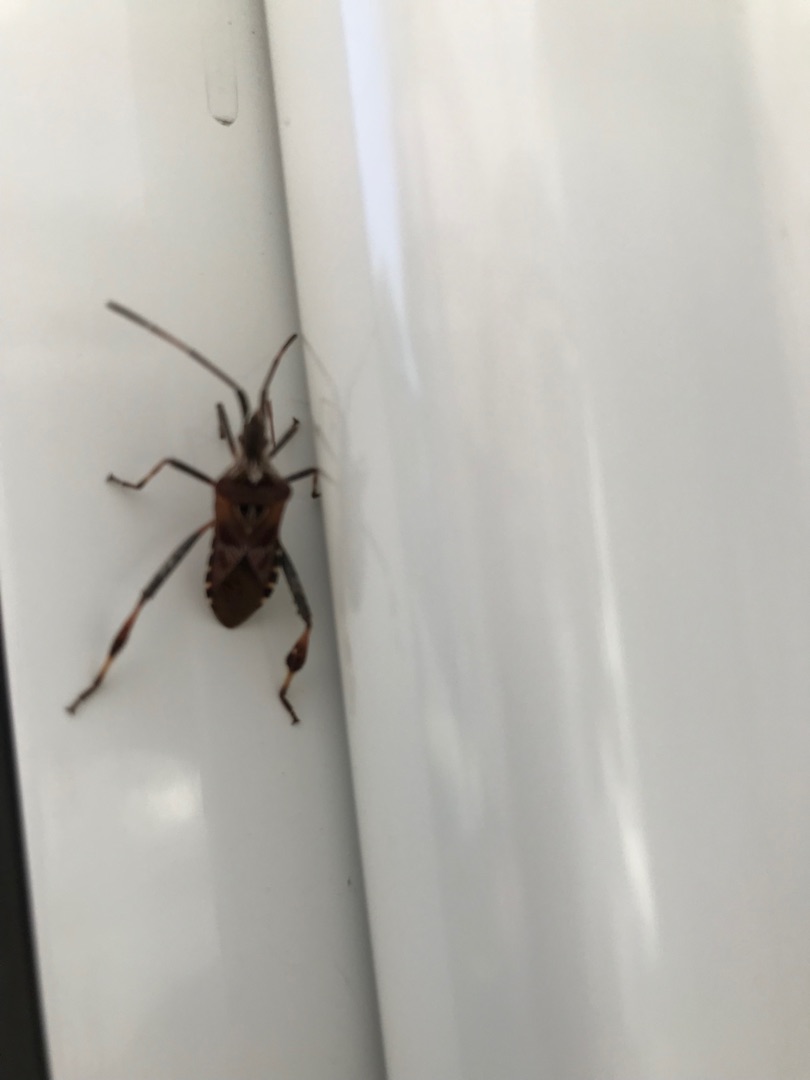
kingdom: Animalia
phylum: Arthropoda
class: Insecta
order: Hemiptera
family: Coreidae
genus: Leptoglossus
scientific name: Leptoglossus occidentalis
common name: Amerikansk fyrretæge
